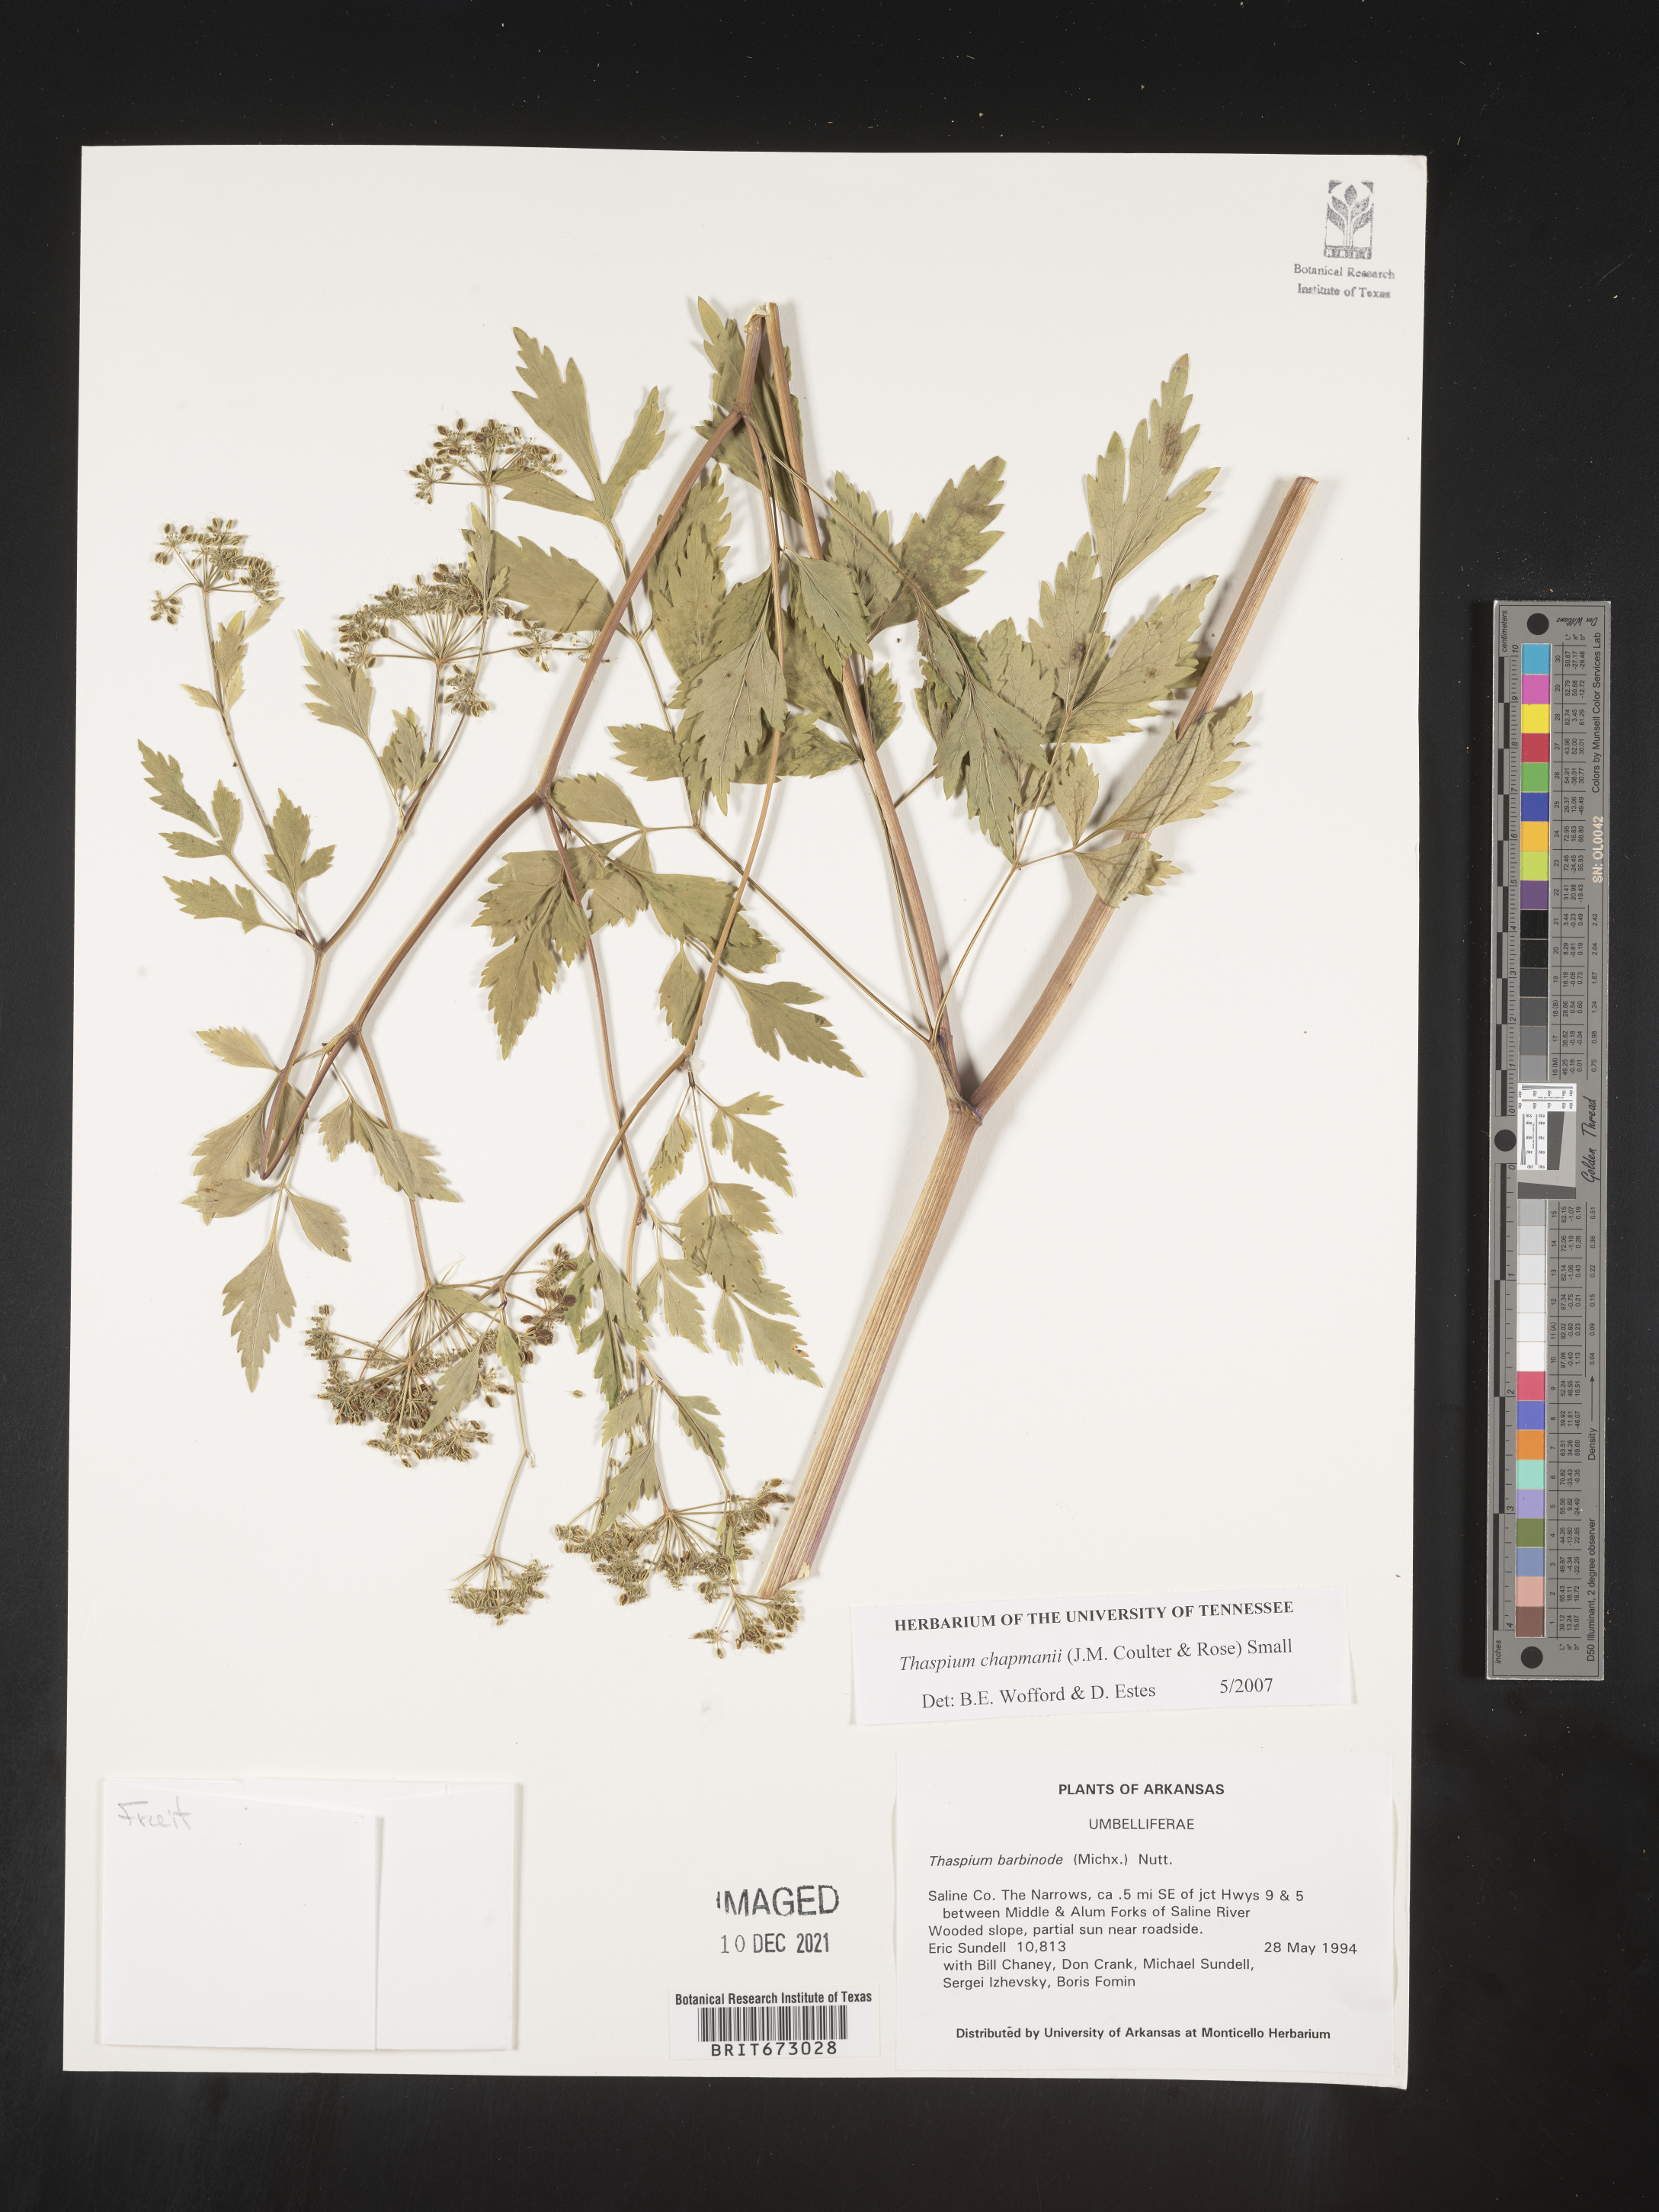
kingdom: Plantae
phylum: Tracheophyta
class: Magnoliopsida
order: Apiales
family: Apiaceae
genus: Thaspium
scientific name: Thaspium barbinode
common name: Bearded meadow-parsnip
